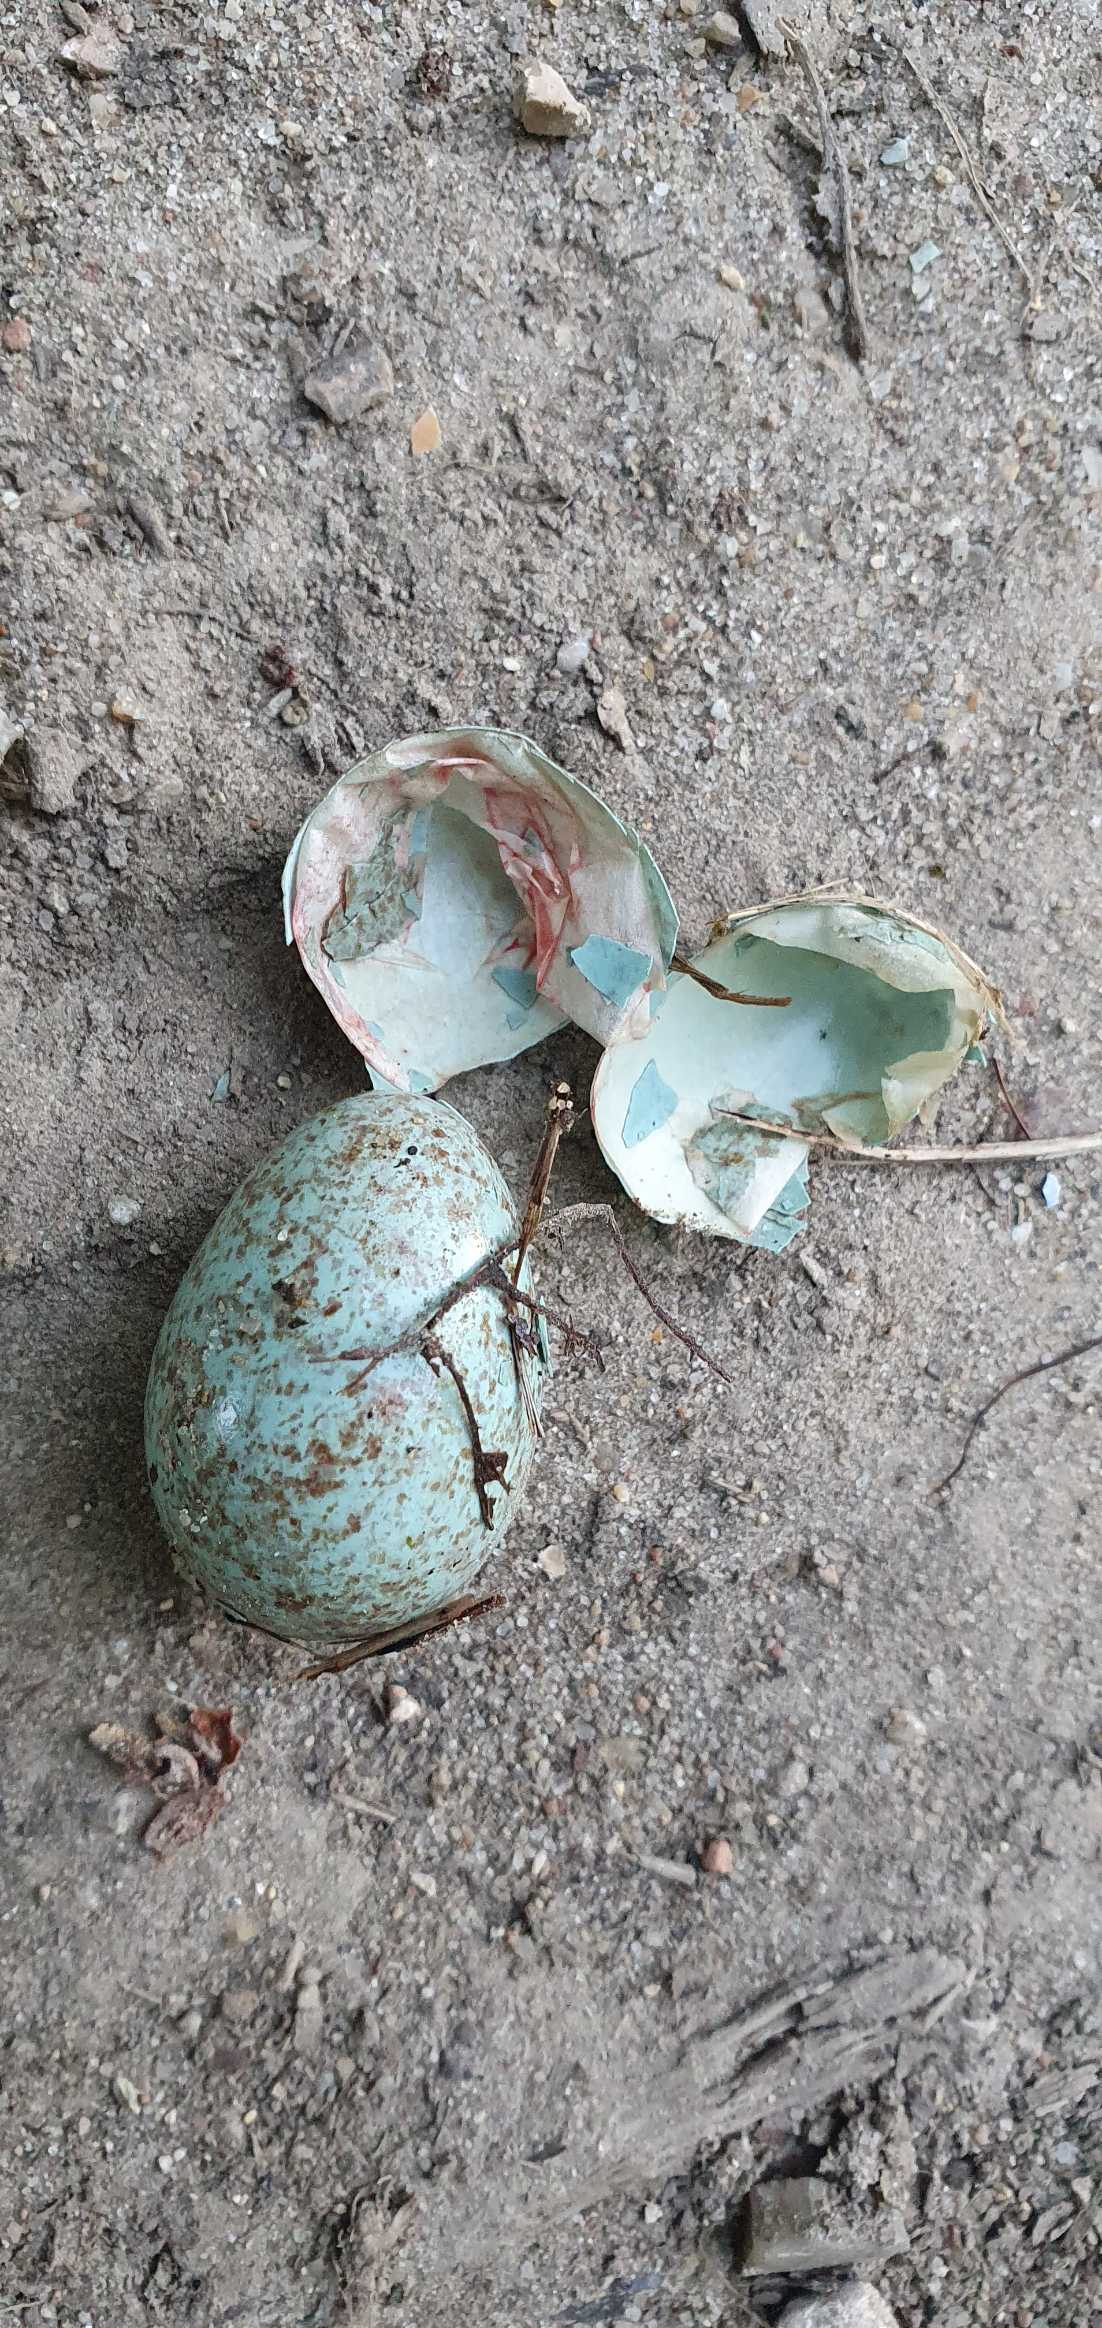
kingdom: Animalia
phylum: Chordata
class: Aves
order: Passeriformes
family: Turdidae
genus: Turdus
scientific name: Turdus merula
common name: Solsort
